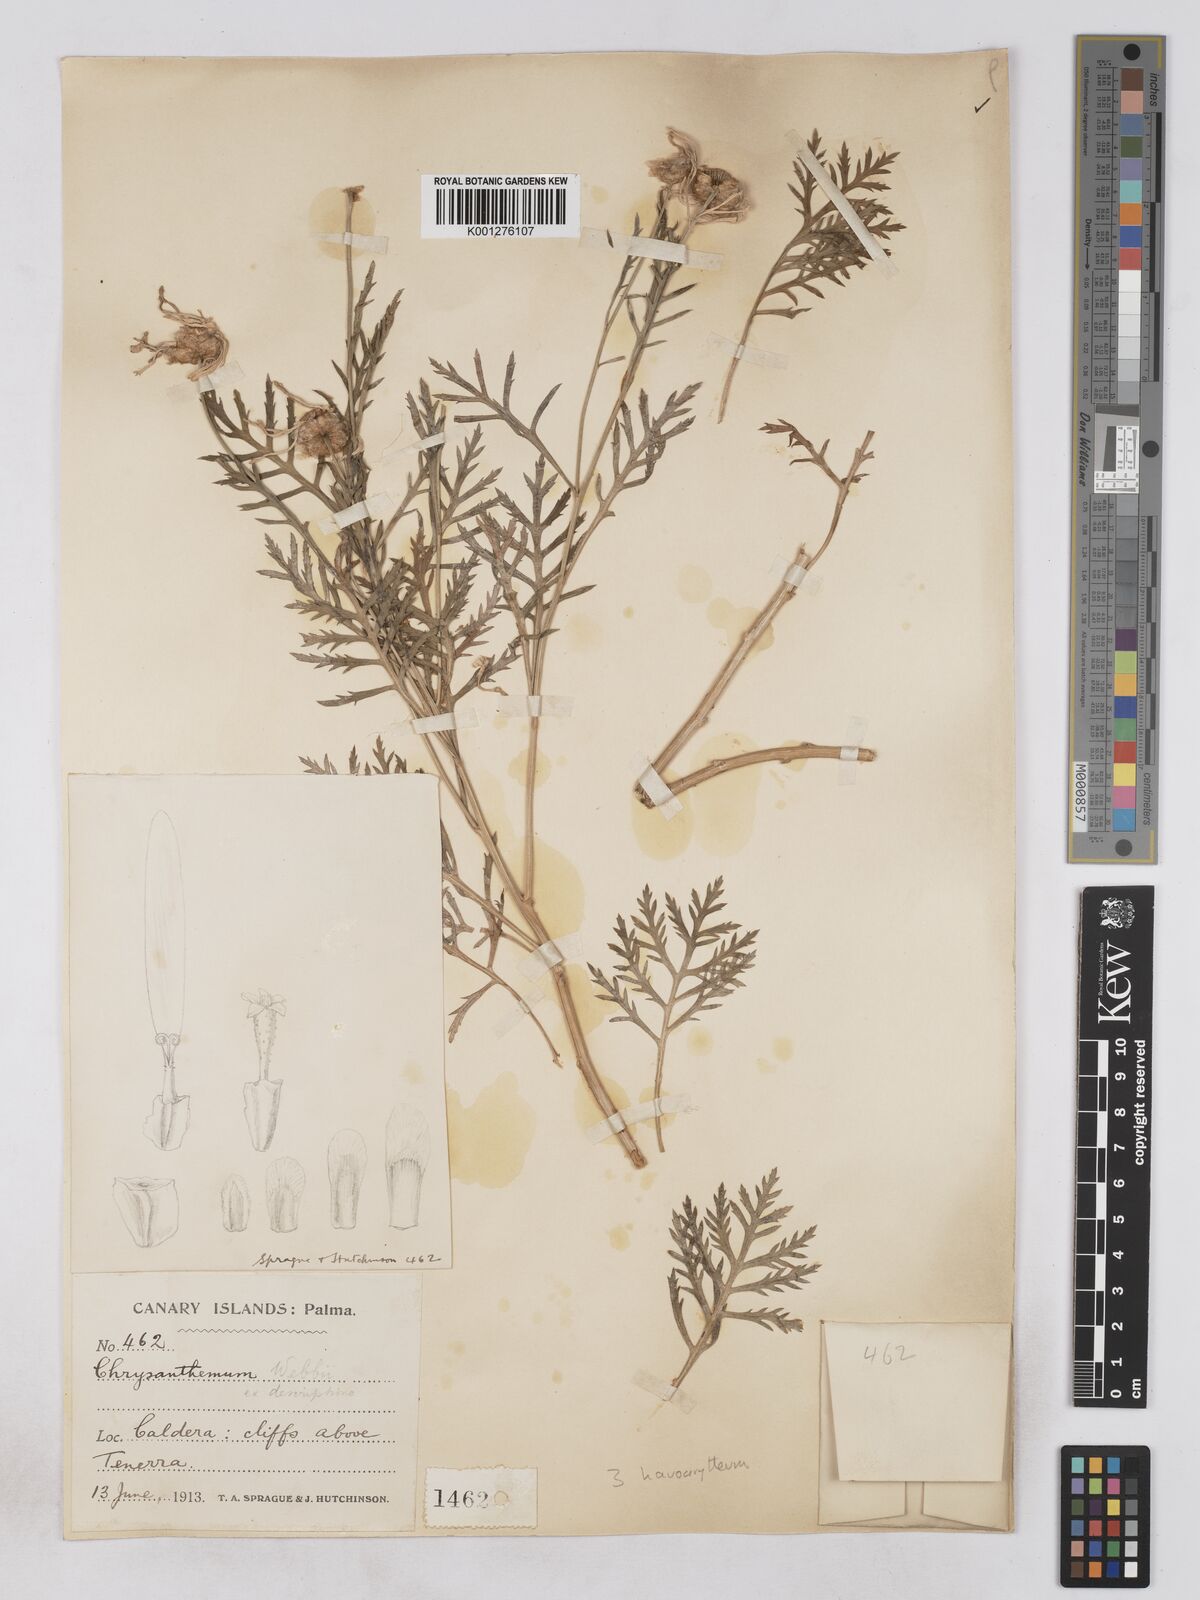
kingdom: Plantae
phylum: Tracheophyta
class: Magnoliopsida
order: Asterales
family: Asteraceae
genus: Argyranthemum
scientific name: Argyranthemum
